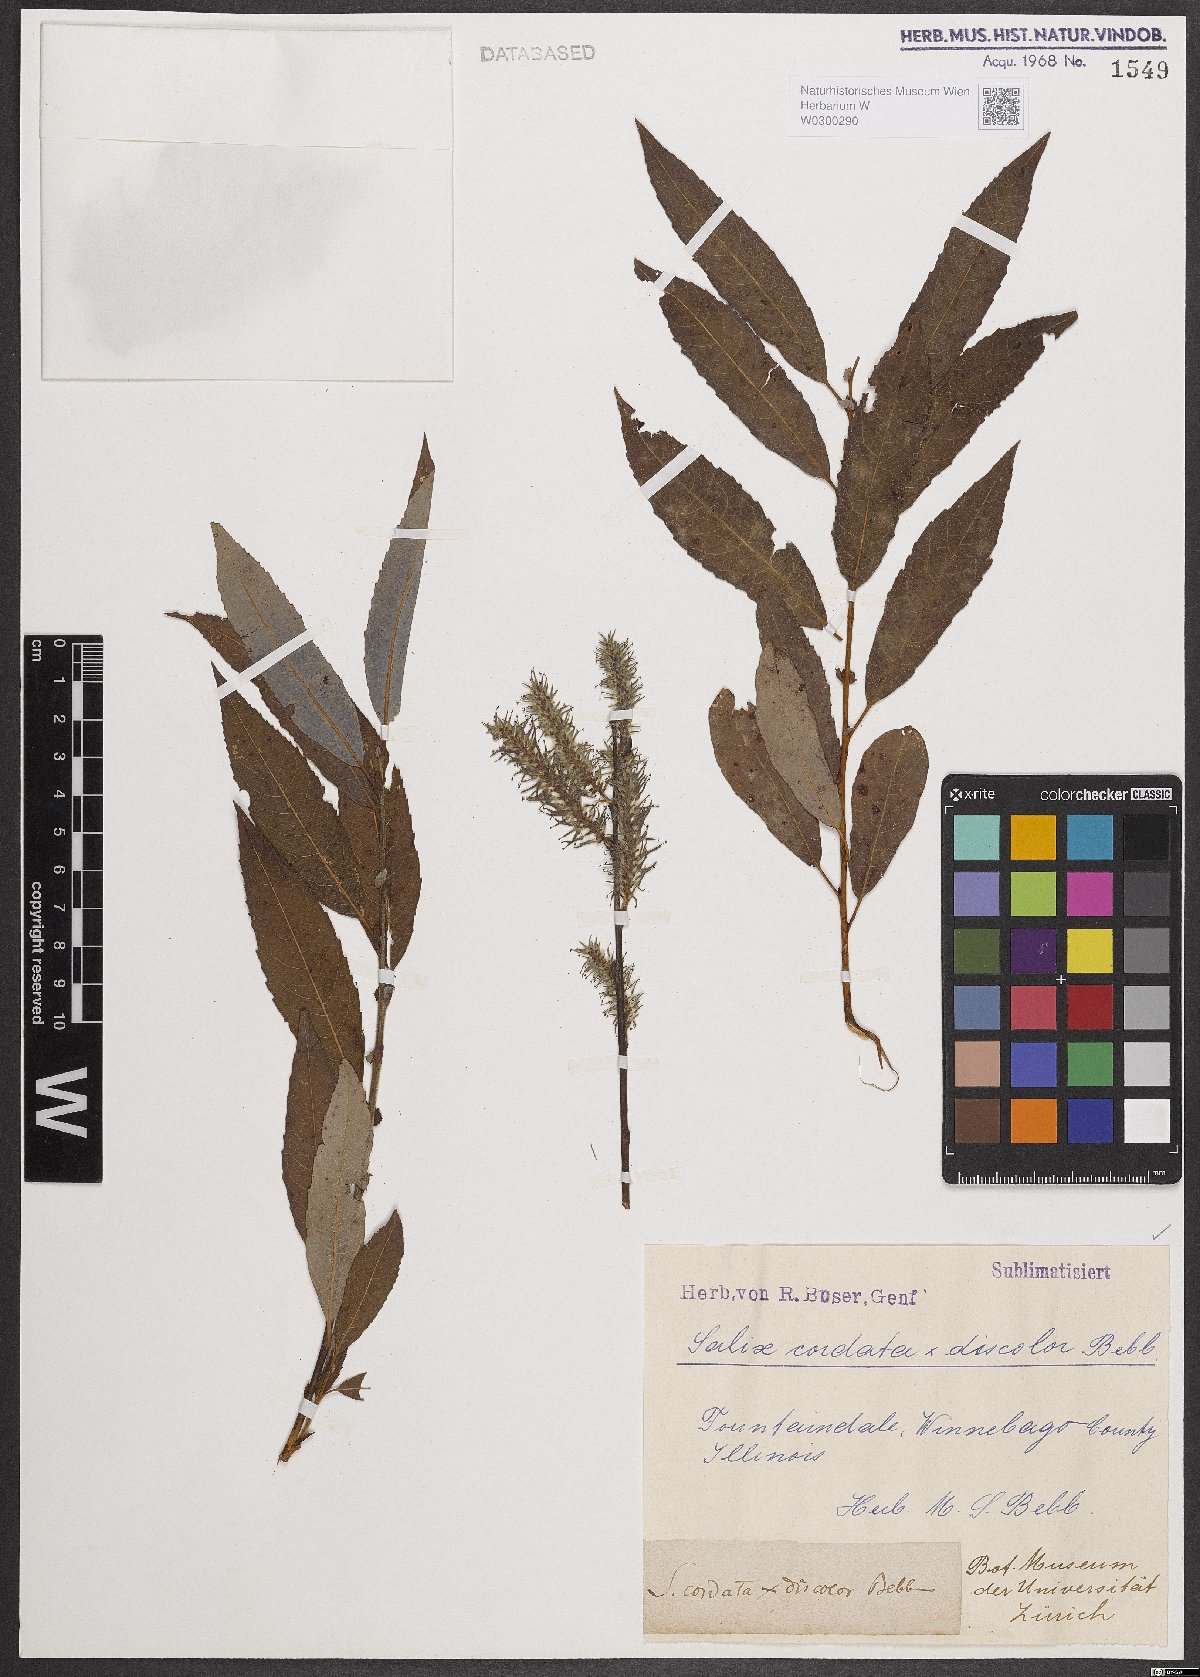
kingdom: Plantae
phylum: Tracheophyta
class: Magnoliopsida
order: Malpighiales
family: Salicaceae
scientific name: Salicaceae
